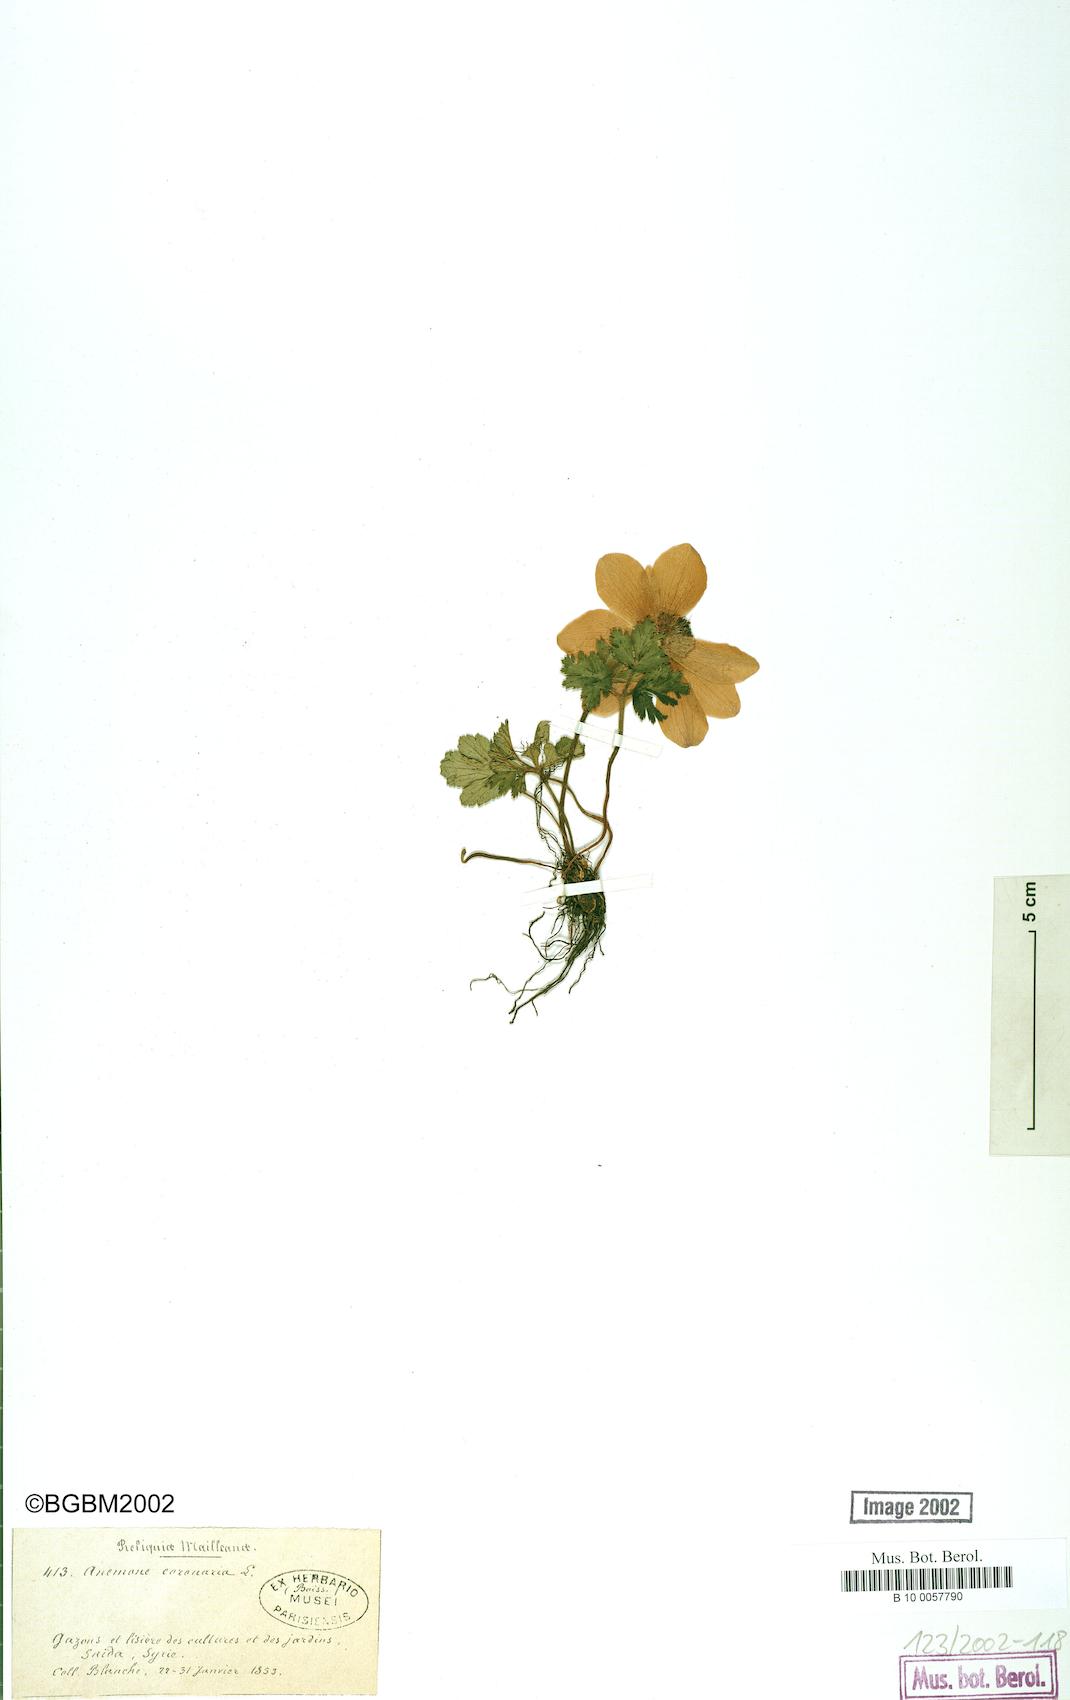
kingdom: Plantae
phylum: Tracheophyta
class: Magnoliopsida
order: Ranunculales
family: Ranunculaceae
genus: Anemone
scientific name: Anemone coronaria
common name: Poppy anemone
